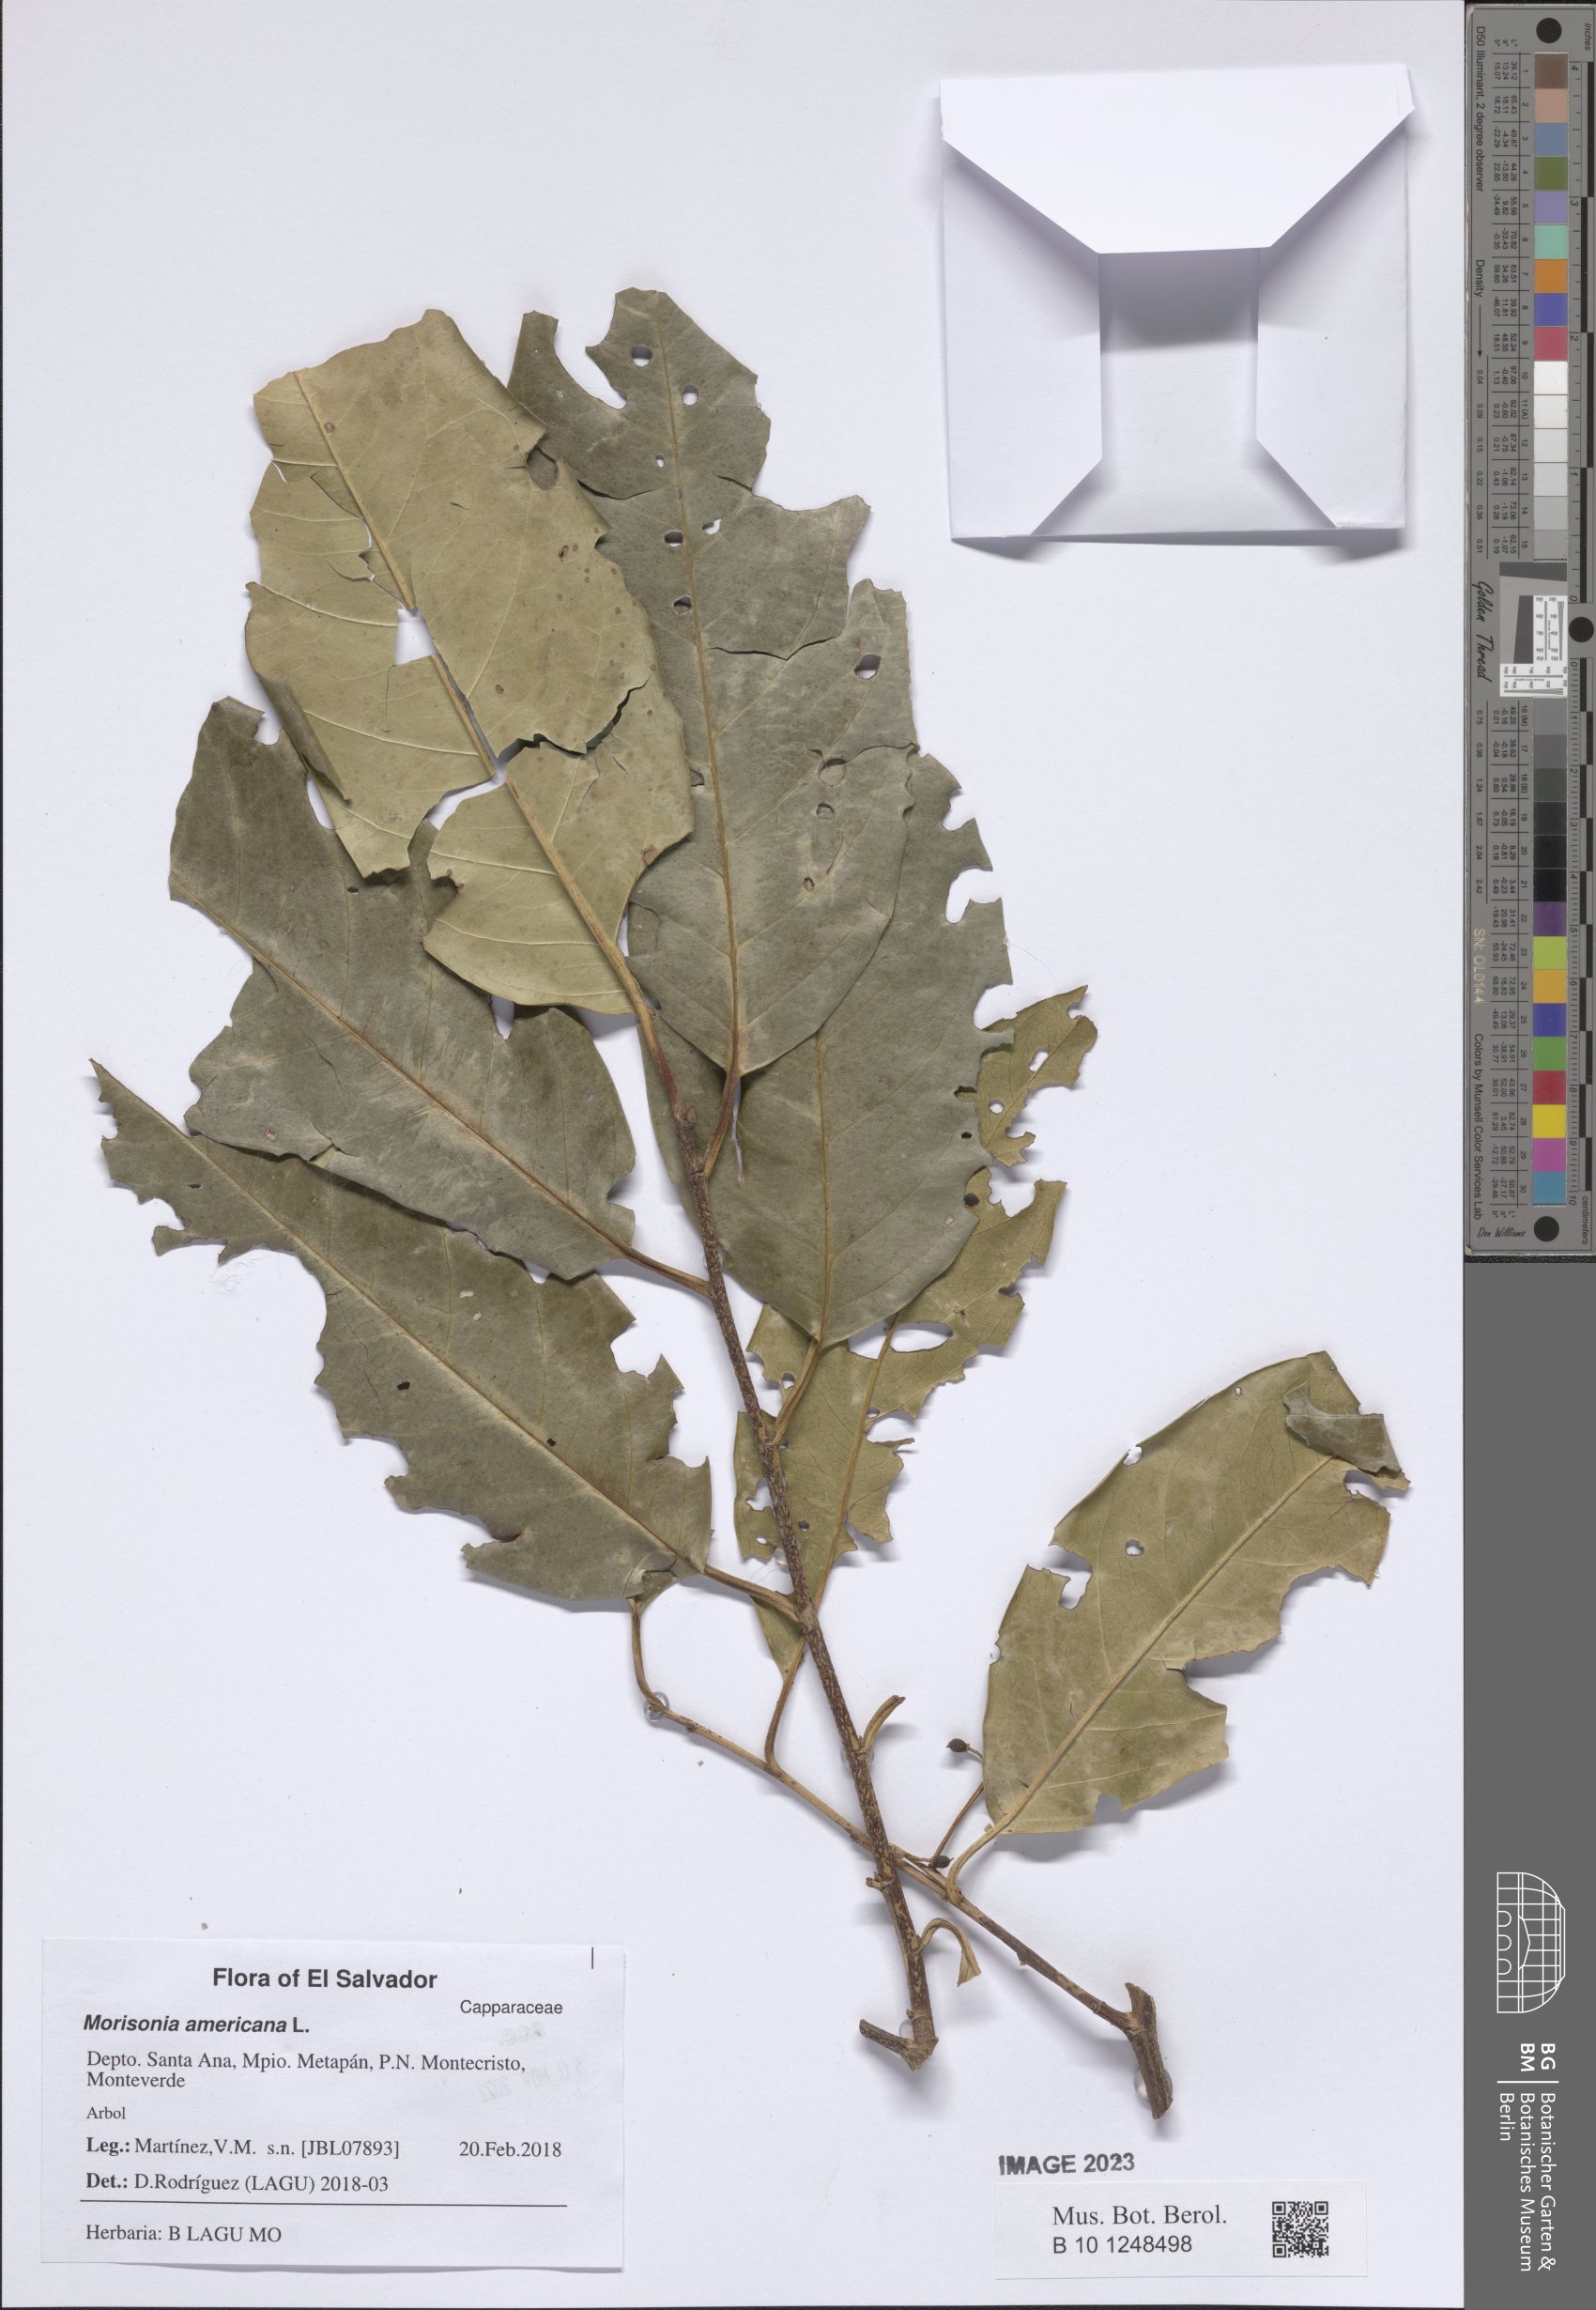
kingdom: Plantae
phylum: Tracheophyta
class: Magnoliopsida
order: Brassicales
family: Capparaceae
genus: Morisonia
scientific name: Morisonia americana
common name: Wild mesple
